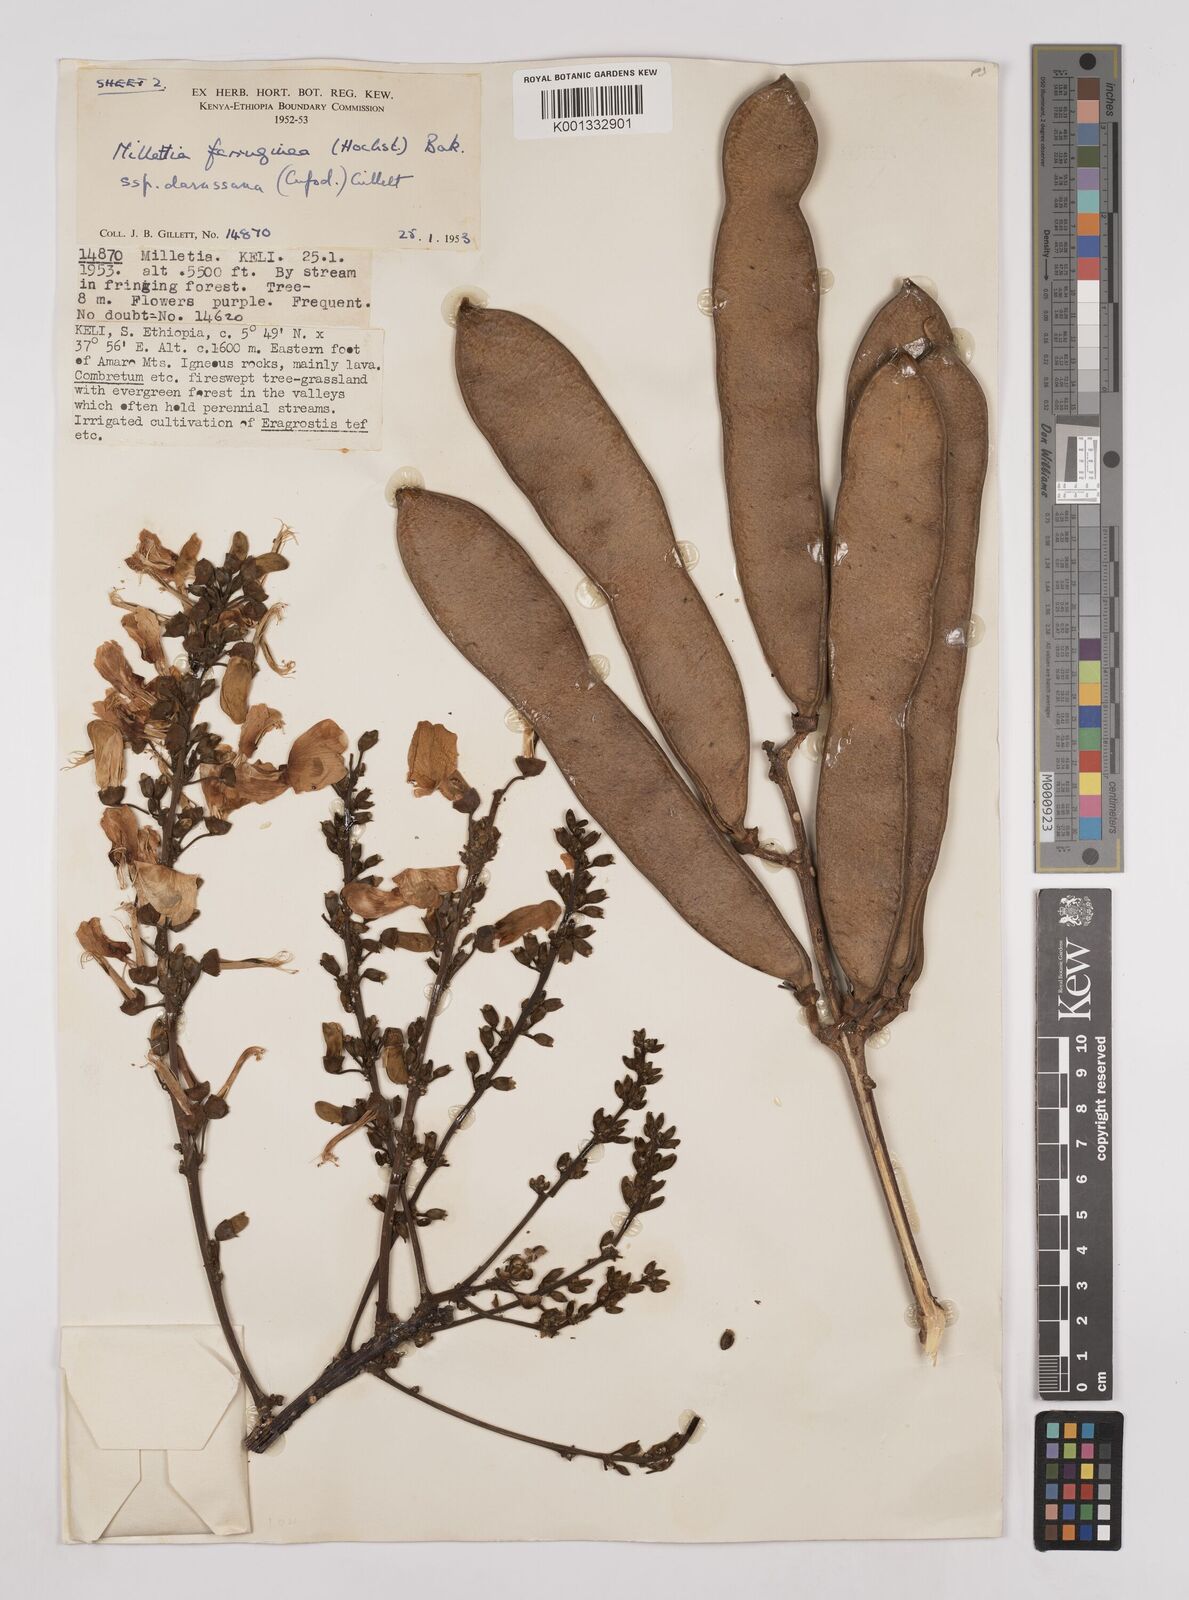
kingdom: Plantae
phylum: Tracheophyta
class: Magnoliopsida
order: Fabales
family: Fabaceae
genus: Millettia
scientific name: Millettia ferruginea
